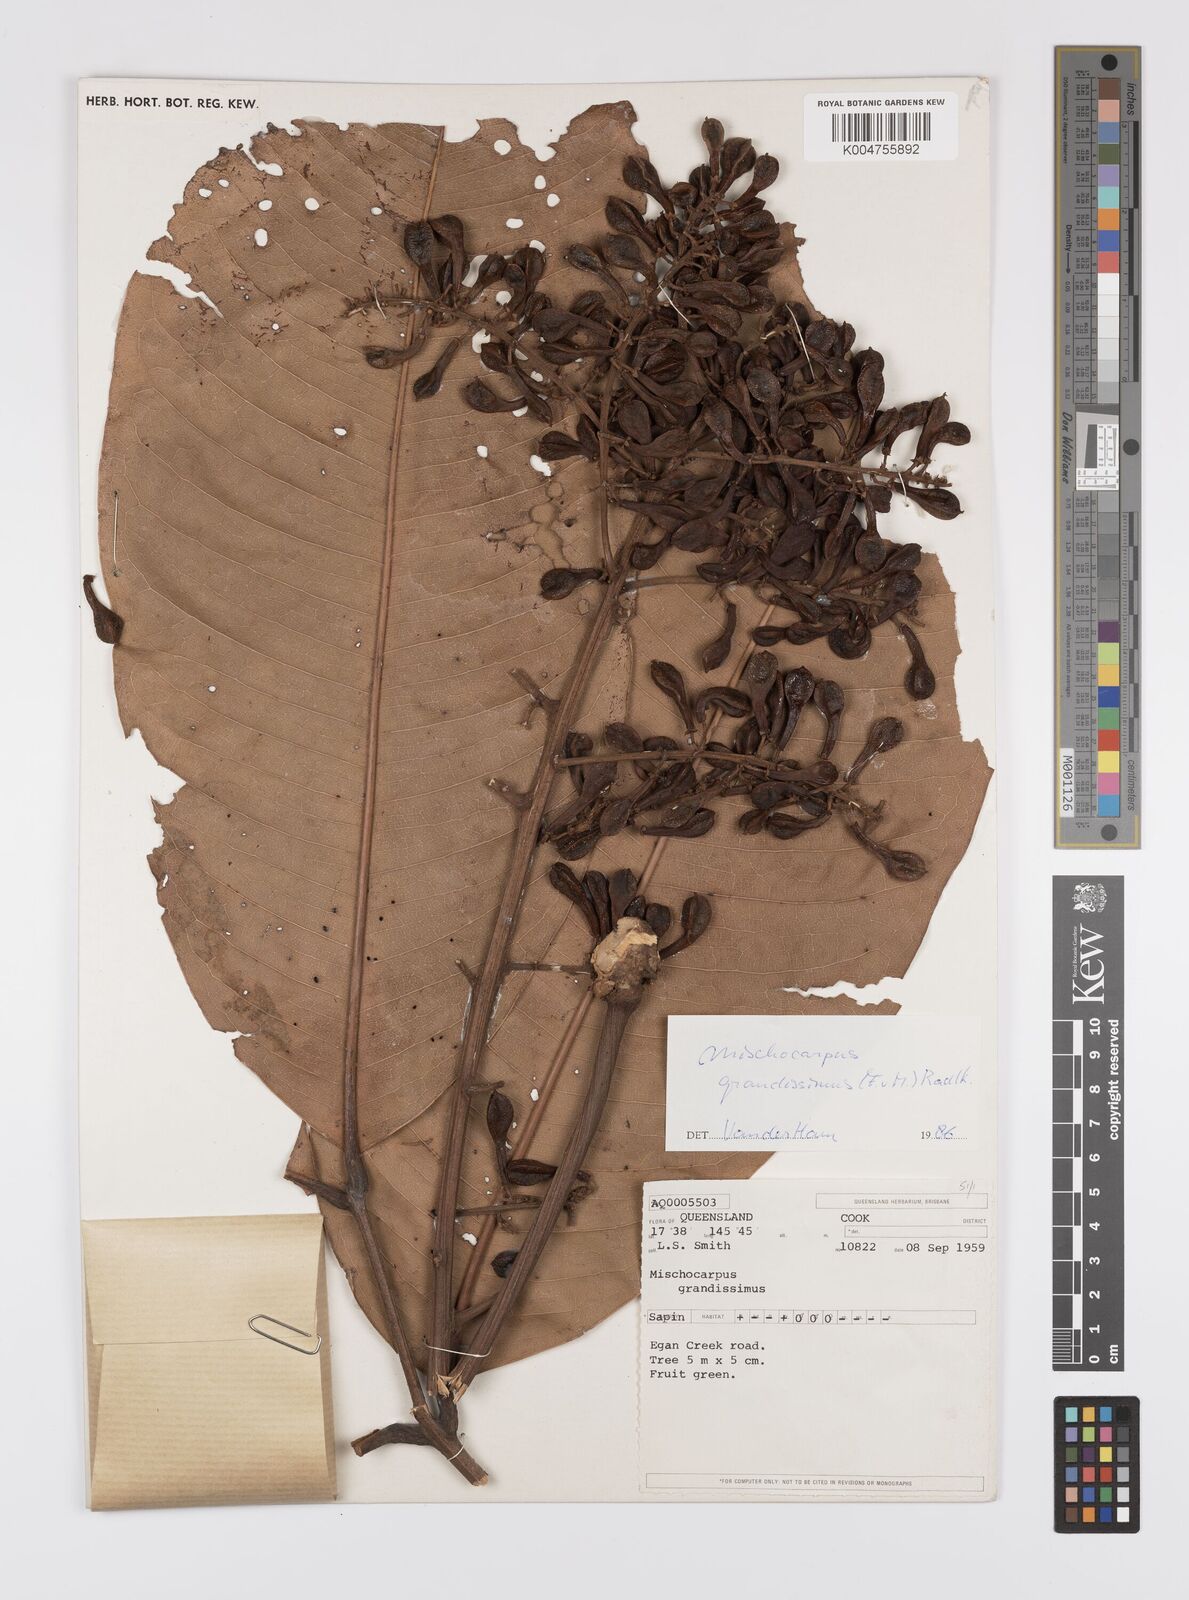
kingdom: Plantae
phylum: Tracheophyta
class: Magnoliopsida
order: Sapindales
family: Sapindaceae
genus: Mischocarpus
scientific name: Mischocarpus grandissimus
